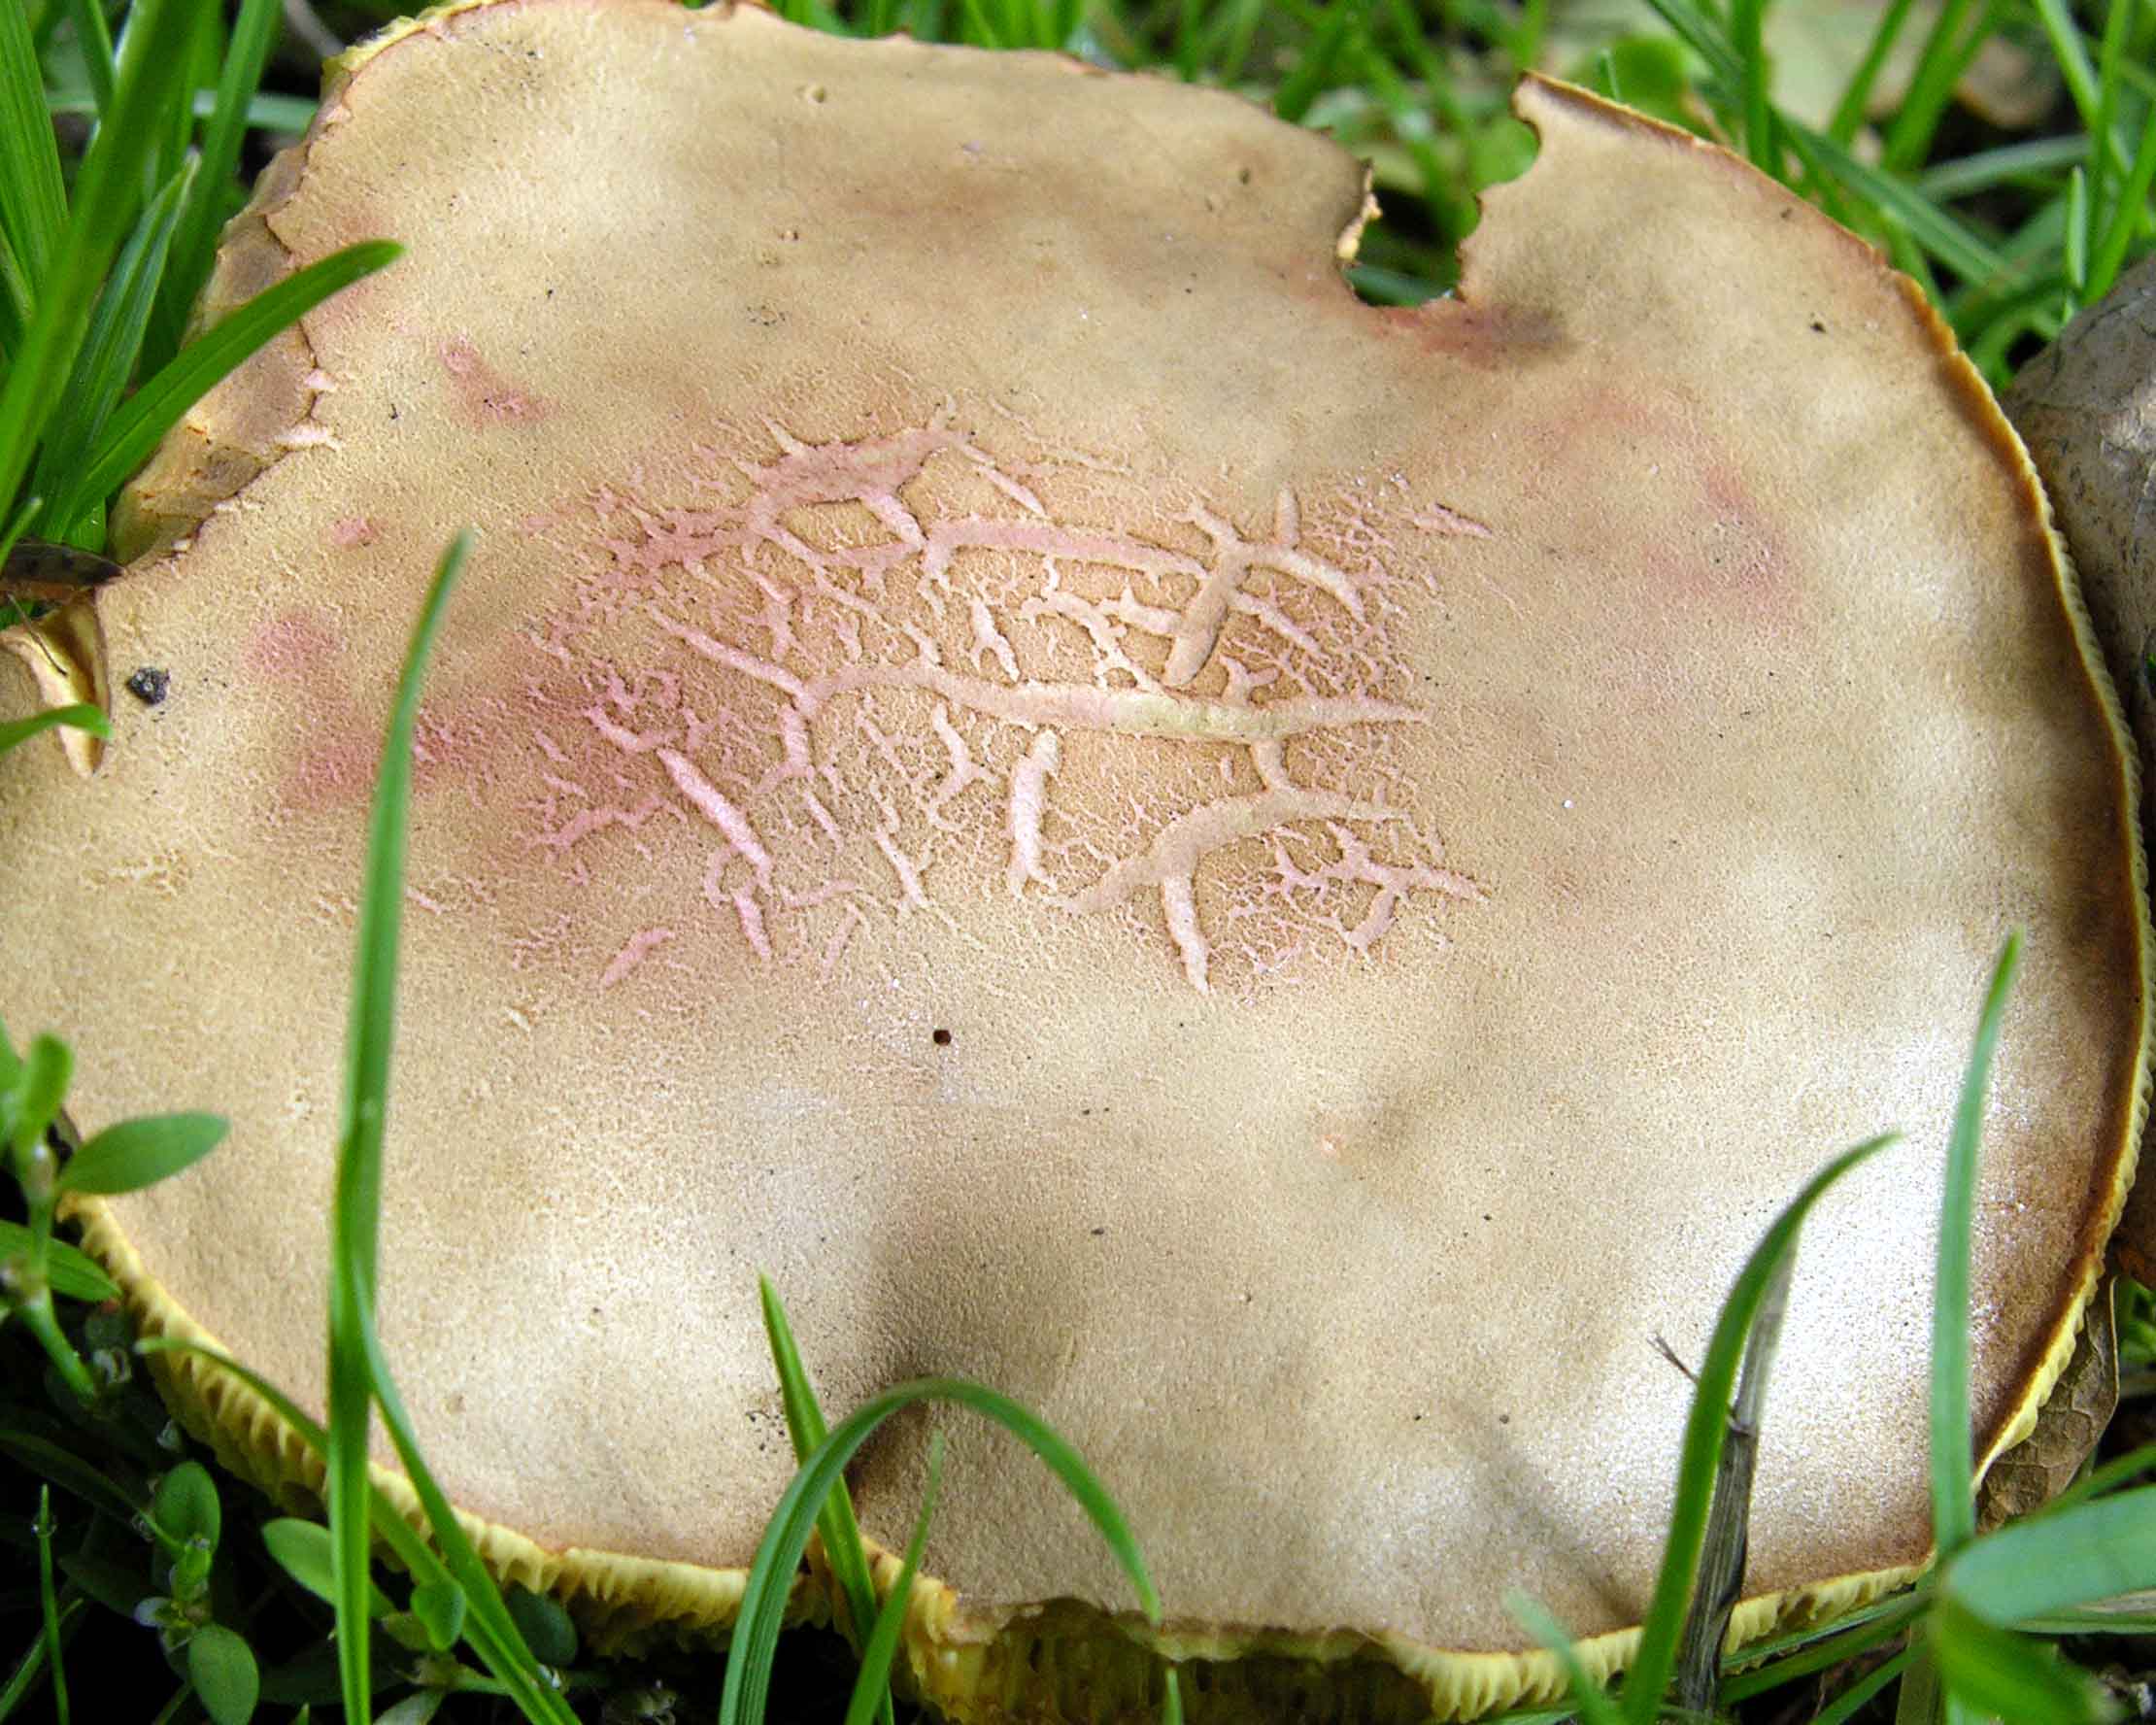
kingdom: Fungi
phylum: Basidiomycota
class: Agaricomycetes
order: Boletales
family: Boletaceae
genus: Hortiboletus
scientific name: Hortiboletus rubellus
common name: blodrød rørhat
